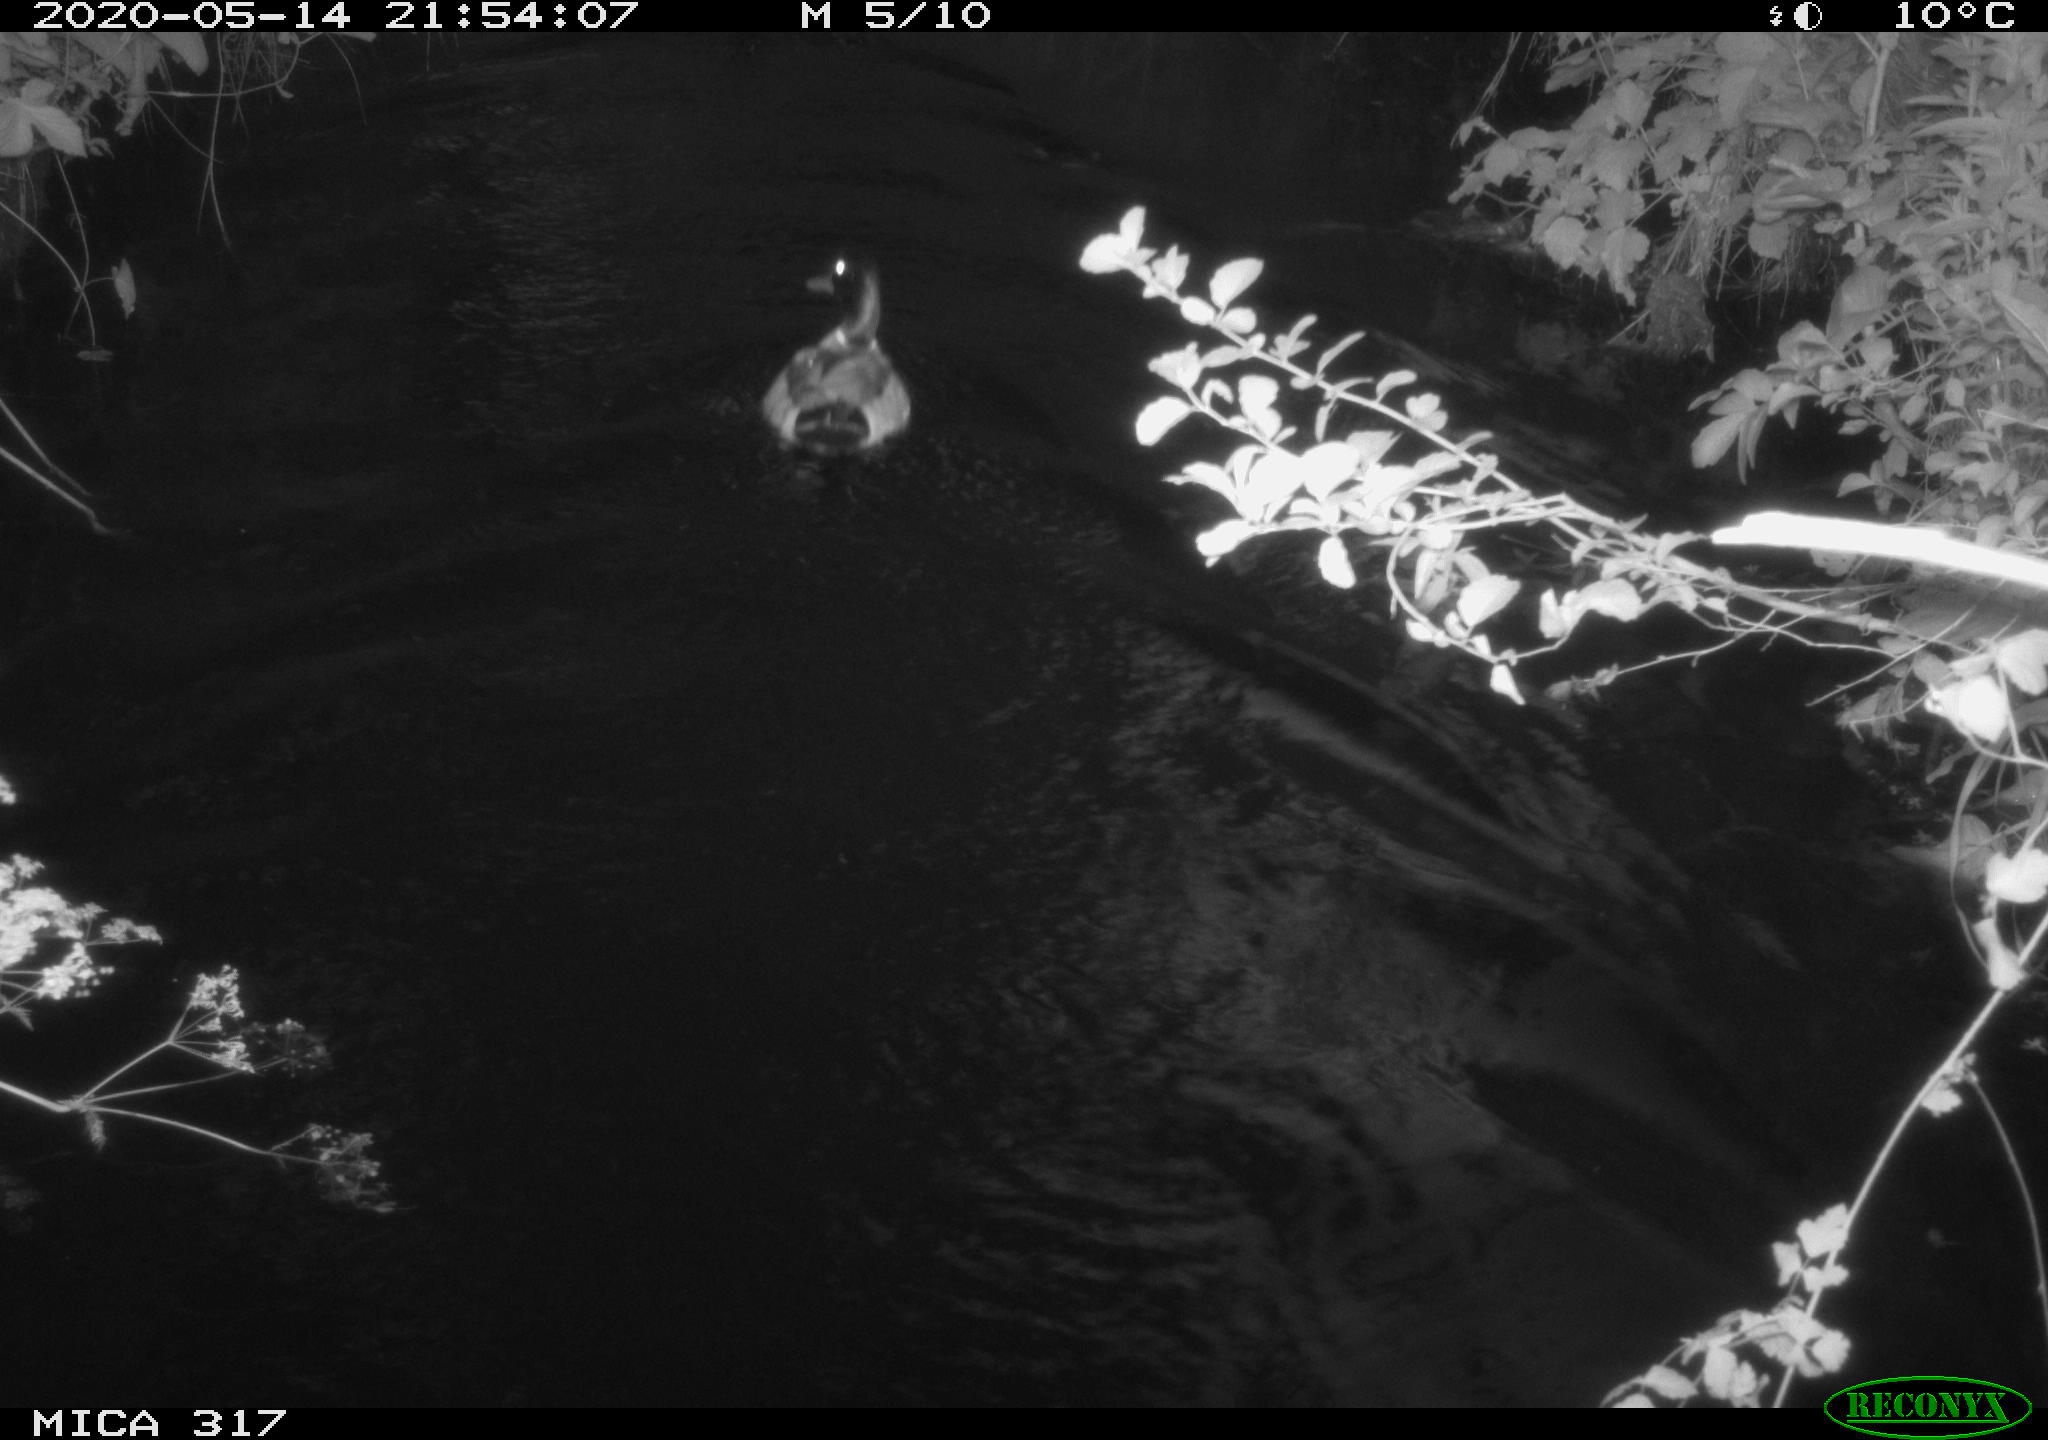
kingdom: Animalia
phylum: Chordata
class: Aves
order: Anseriformes
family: Anatidae
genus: Anas
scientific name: Anas platyrhynchos
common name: Mallard
